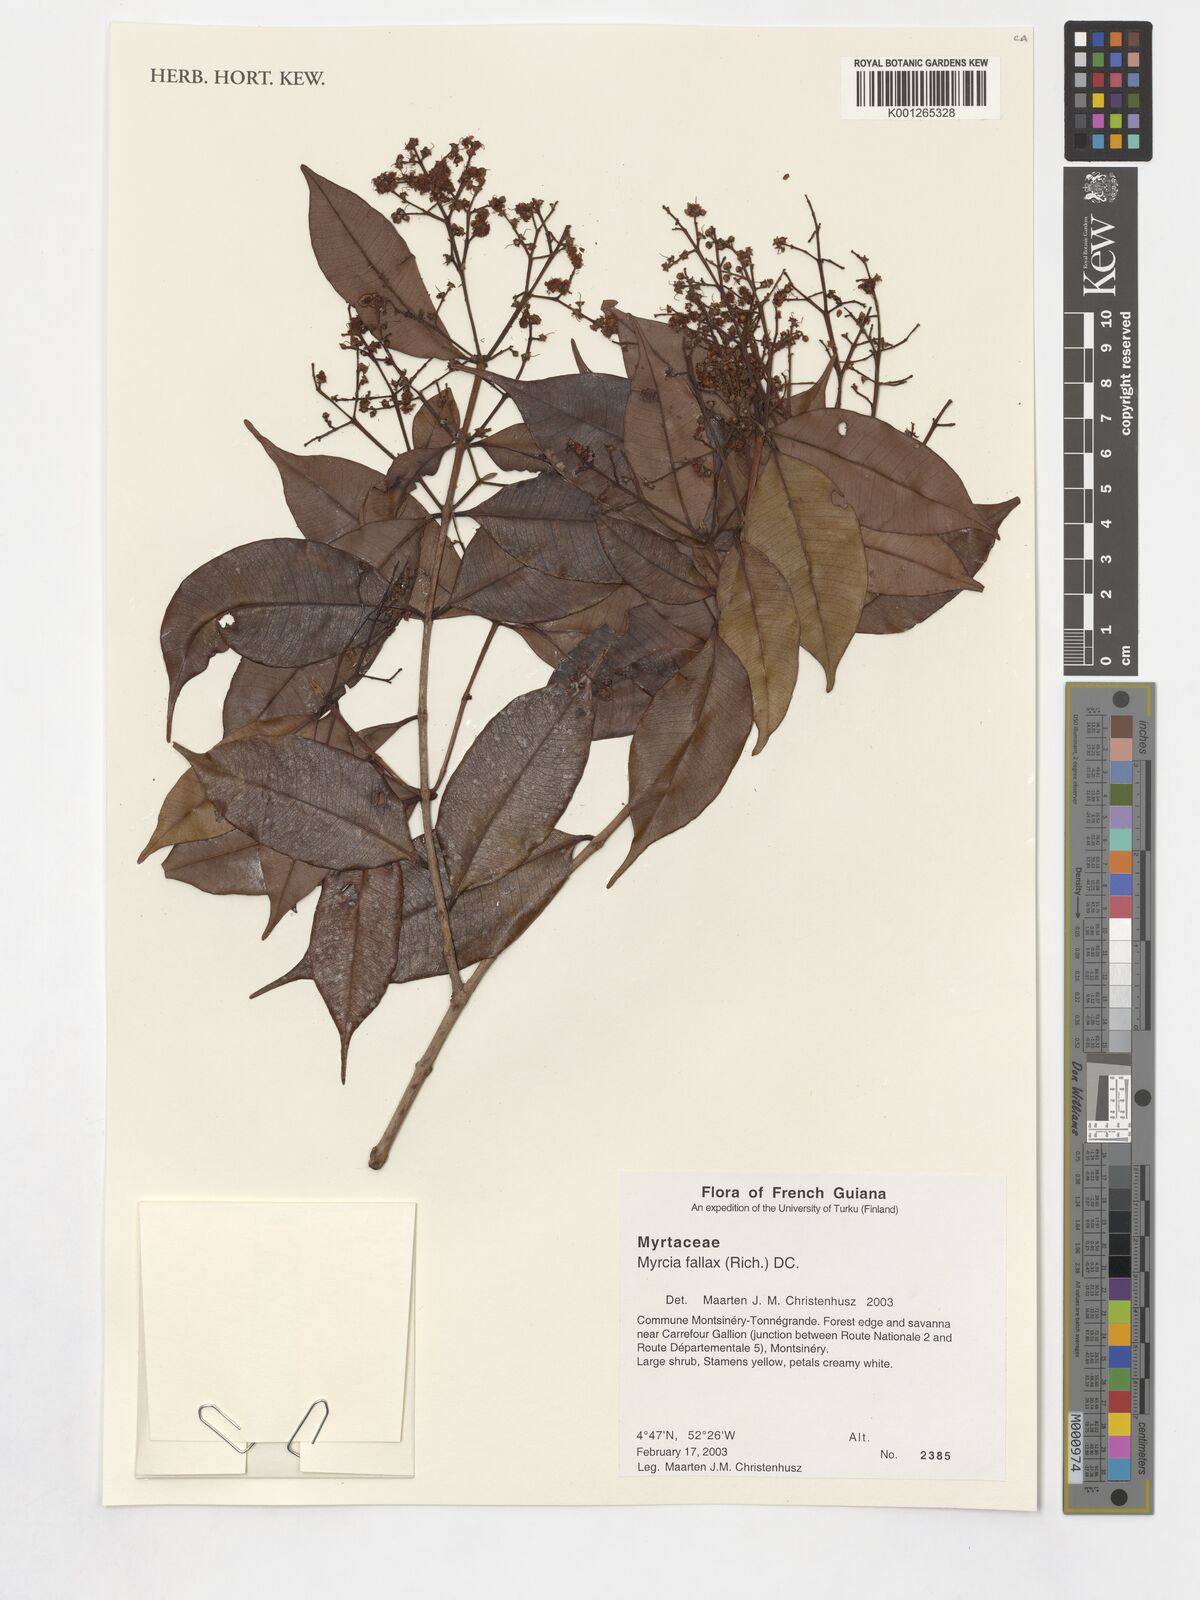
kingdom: Plantae
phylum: Tracheophyta
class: Magnoliopsida
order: Myrtales
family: Myrtaceae
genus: Myrcia
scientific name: Myrcia splendens
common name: Surinam cherry
